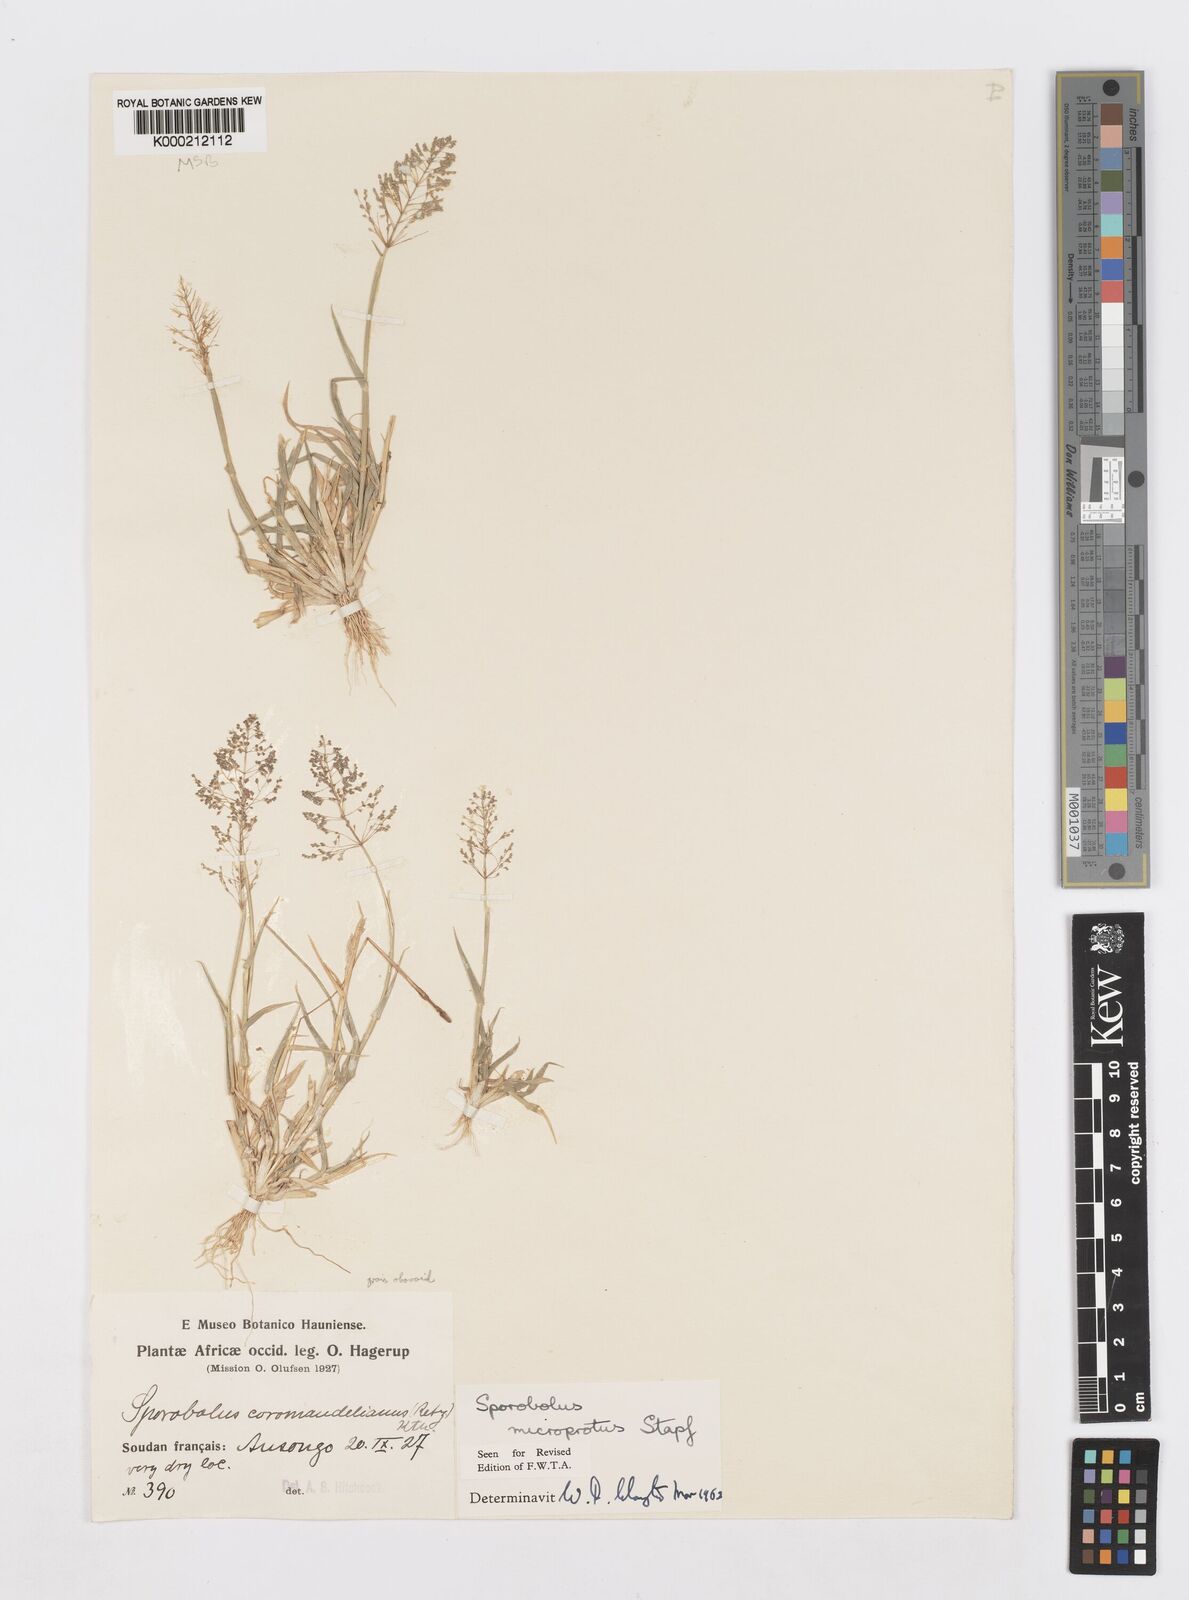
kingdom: Plantae
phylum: Tracheophyta
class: Liliopsida
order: Poales
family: Poaceae
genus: Sporobolus
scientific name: Sporobolus microprotus
